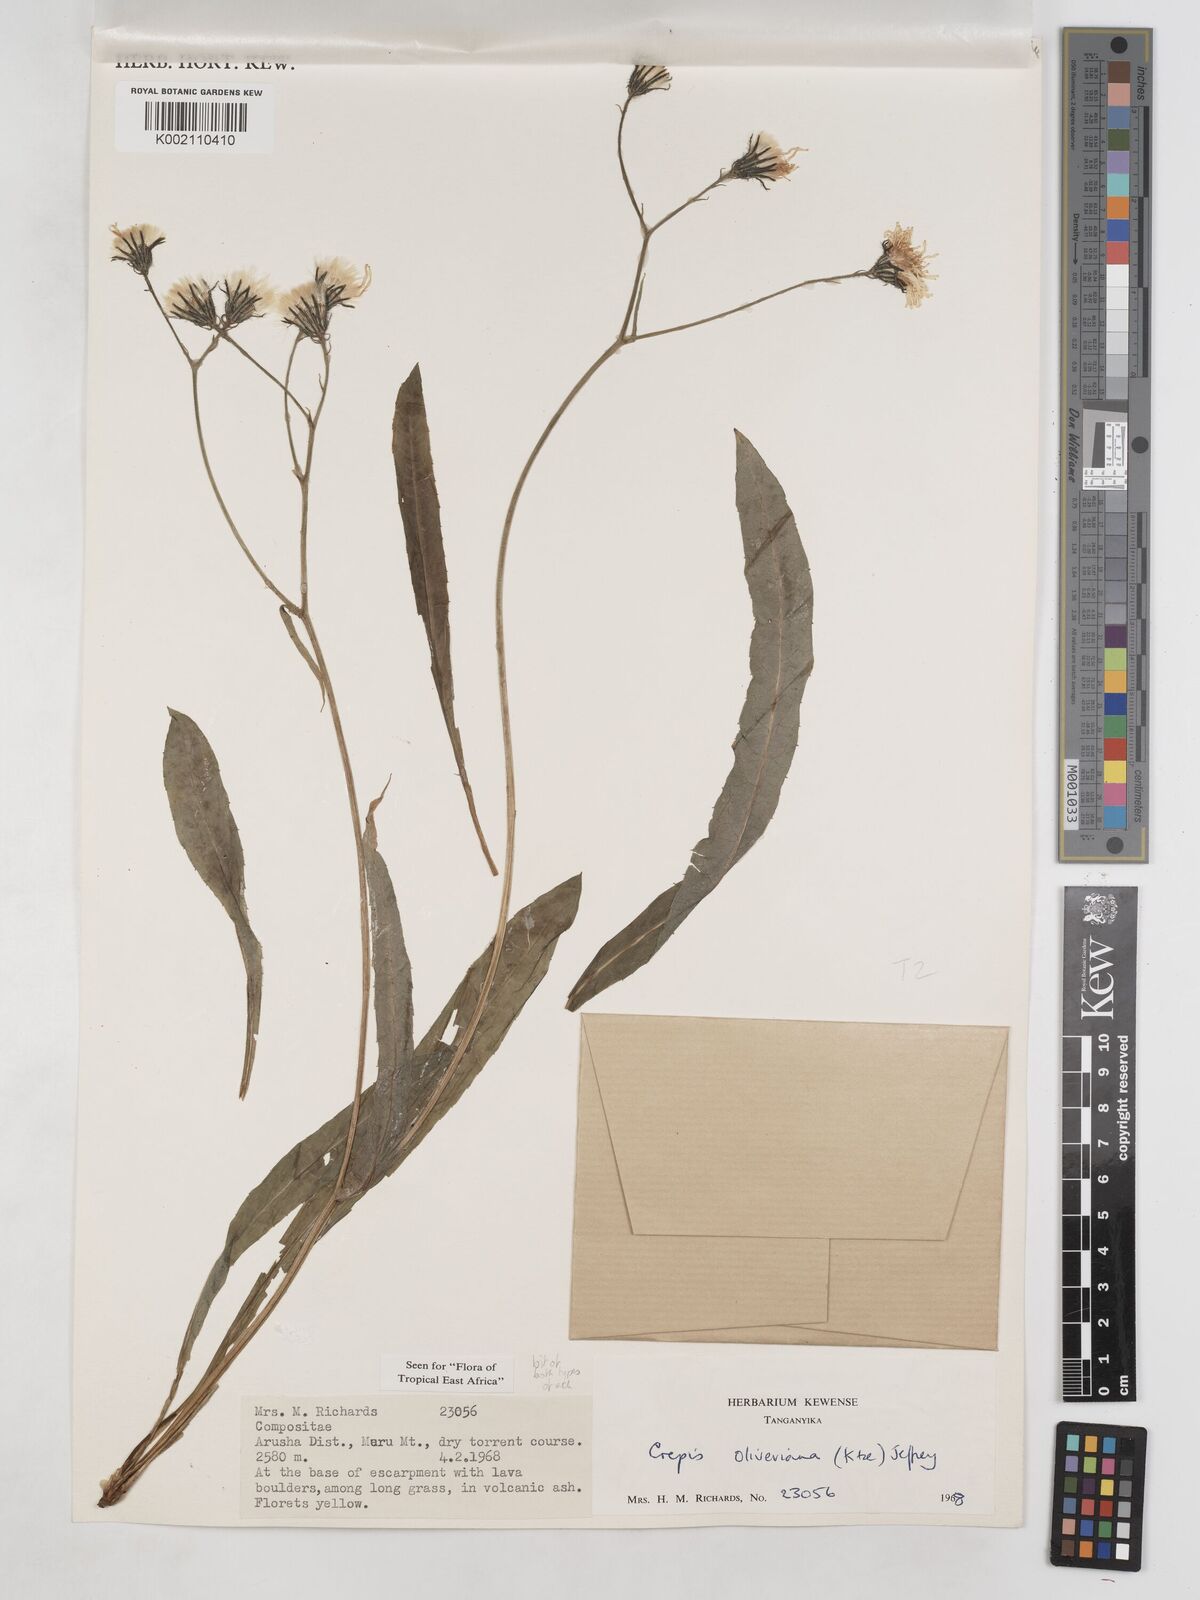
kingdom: Plantae
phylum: Tracheophyta
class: Magnoliopsida
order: Asterales
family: Asteraceae
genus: Crepis
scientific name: Crepis hypochoeridea
